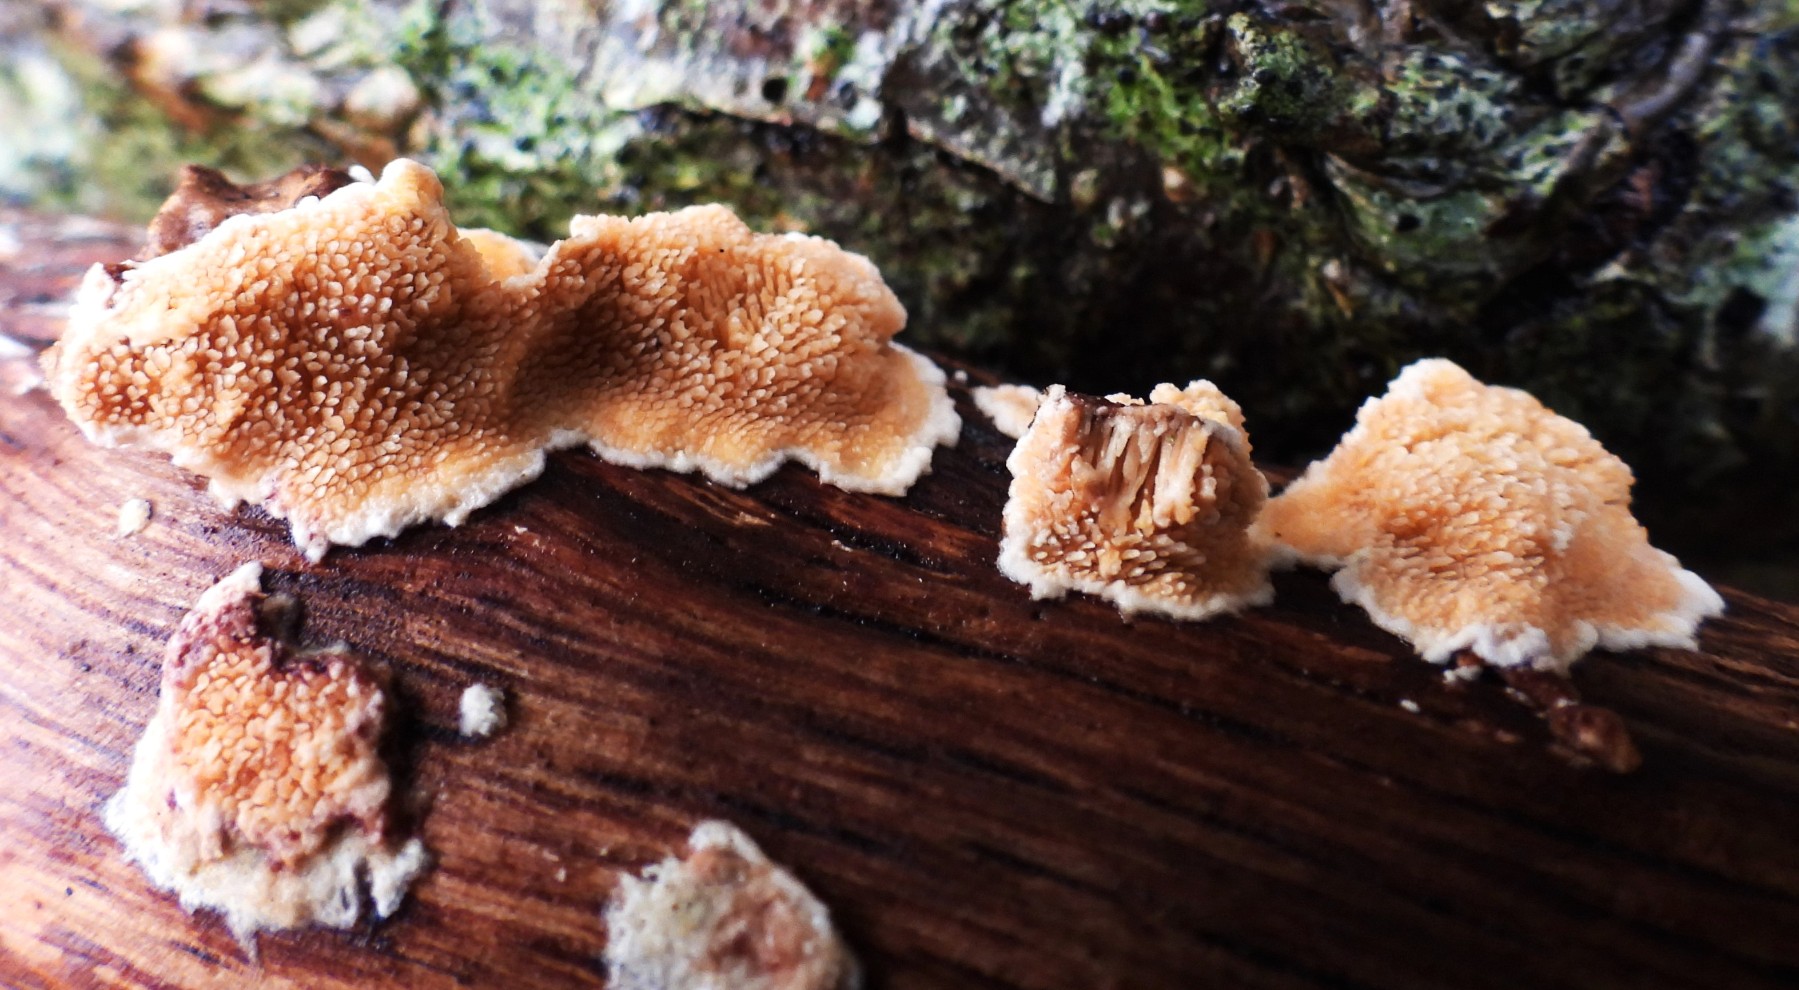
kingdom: Fungi
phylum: Basidiomycota
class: Agaricomycetes
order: Polyporales
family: Steccherinaceae
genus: Steccherinum
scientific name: Steccherinum ochraceum
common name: almindelig skønpig
